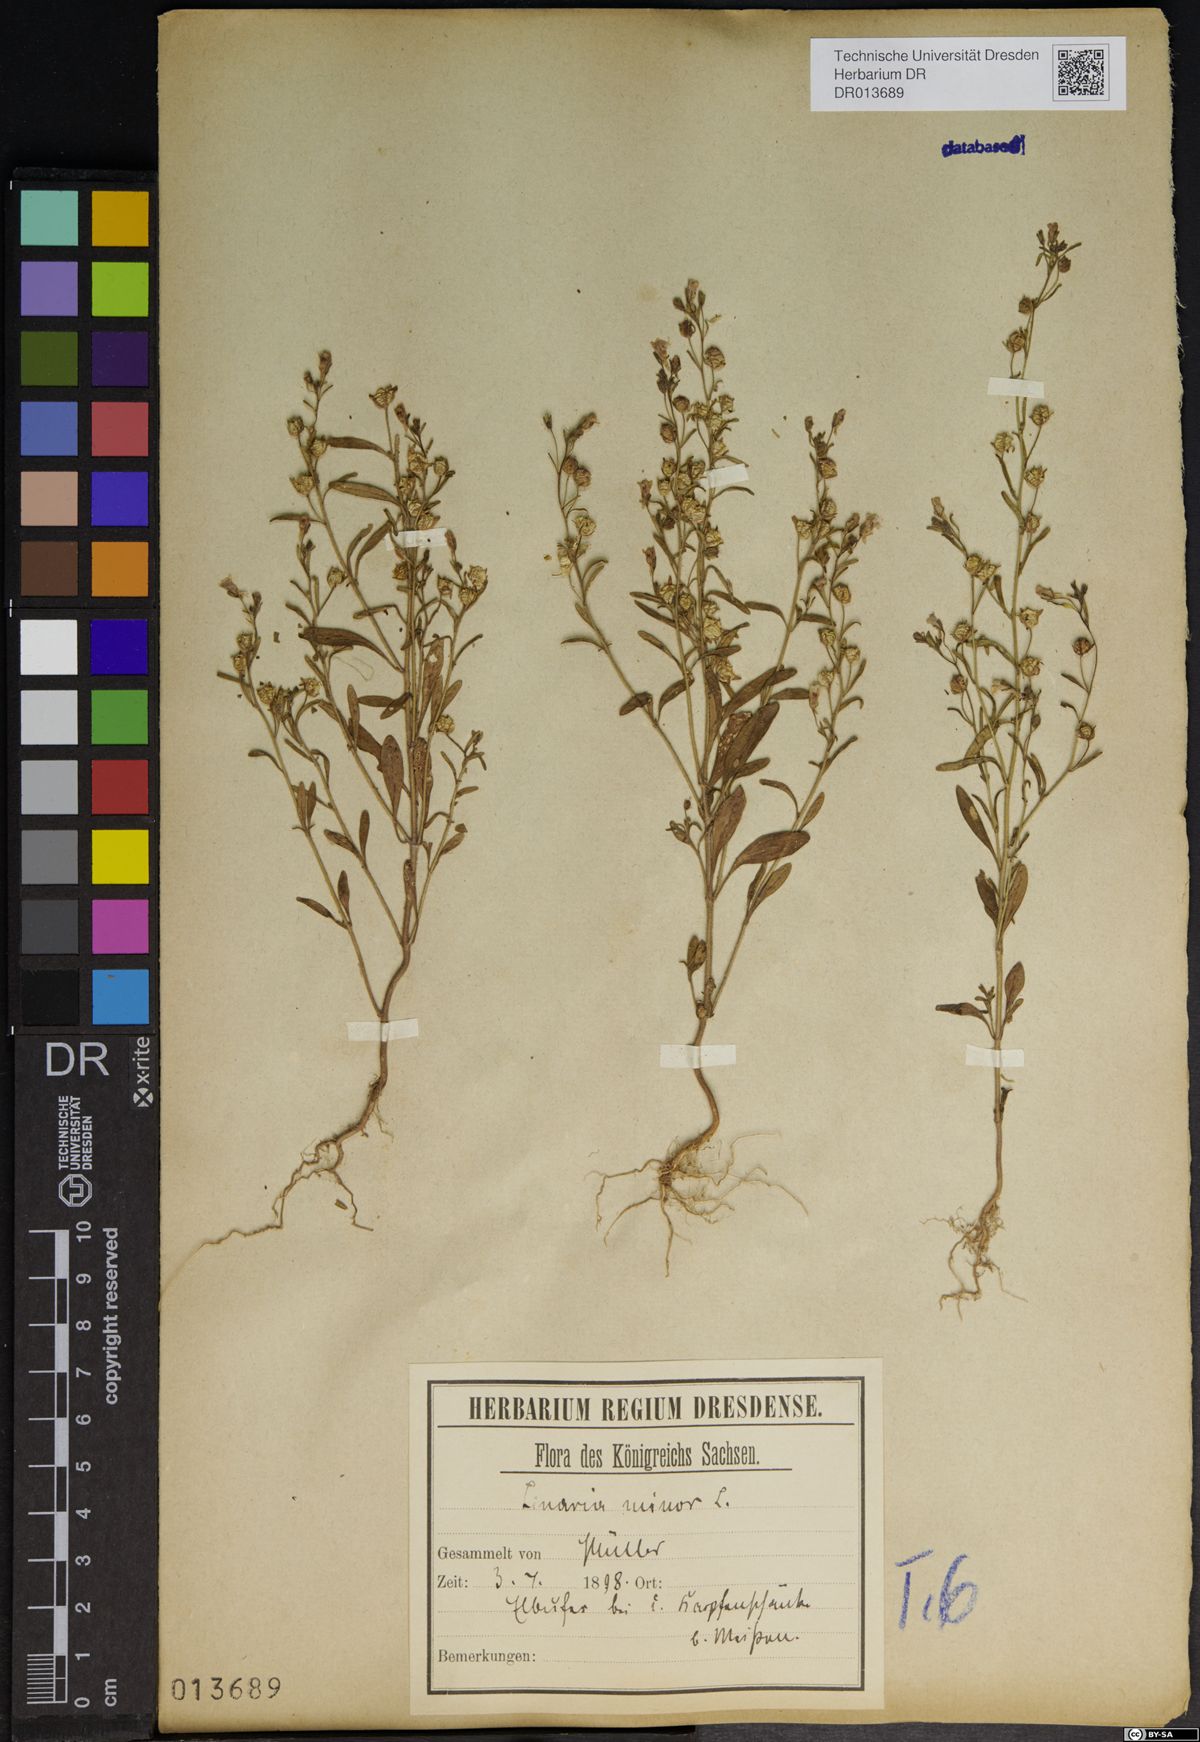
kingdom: Plantae
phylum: Tracheophyta
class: Magnoliopsida
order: Lamiales
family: Plantaginaceae
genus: Chaenorhinum
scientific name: Chaenorhinum minus
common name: Dwarf snapdragon
